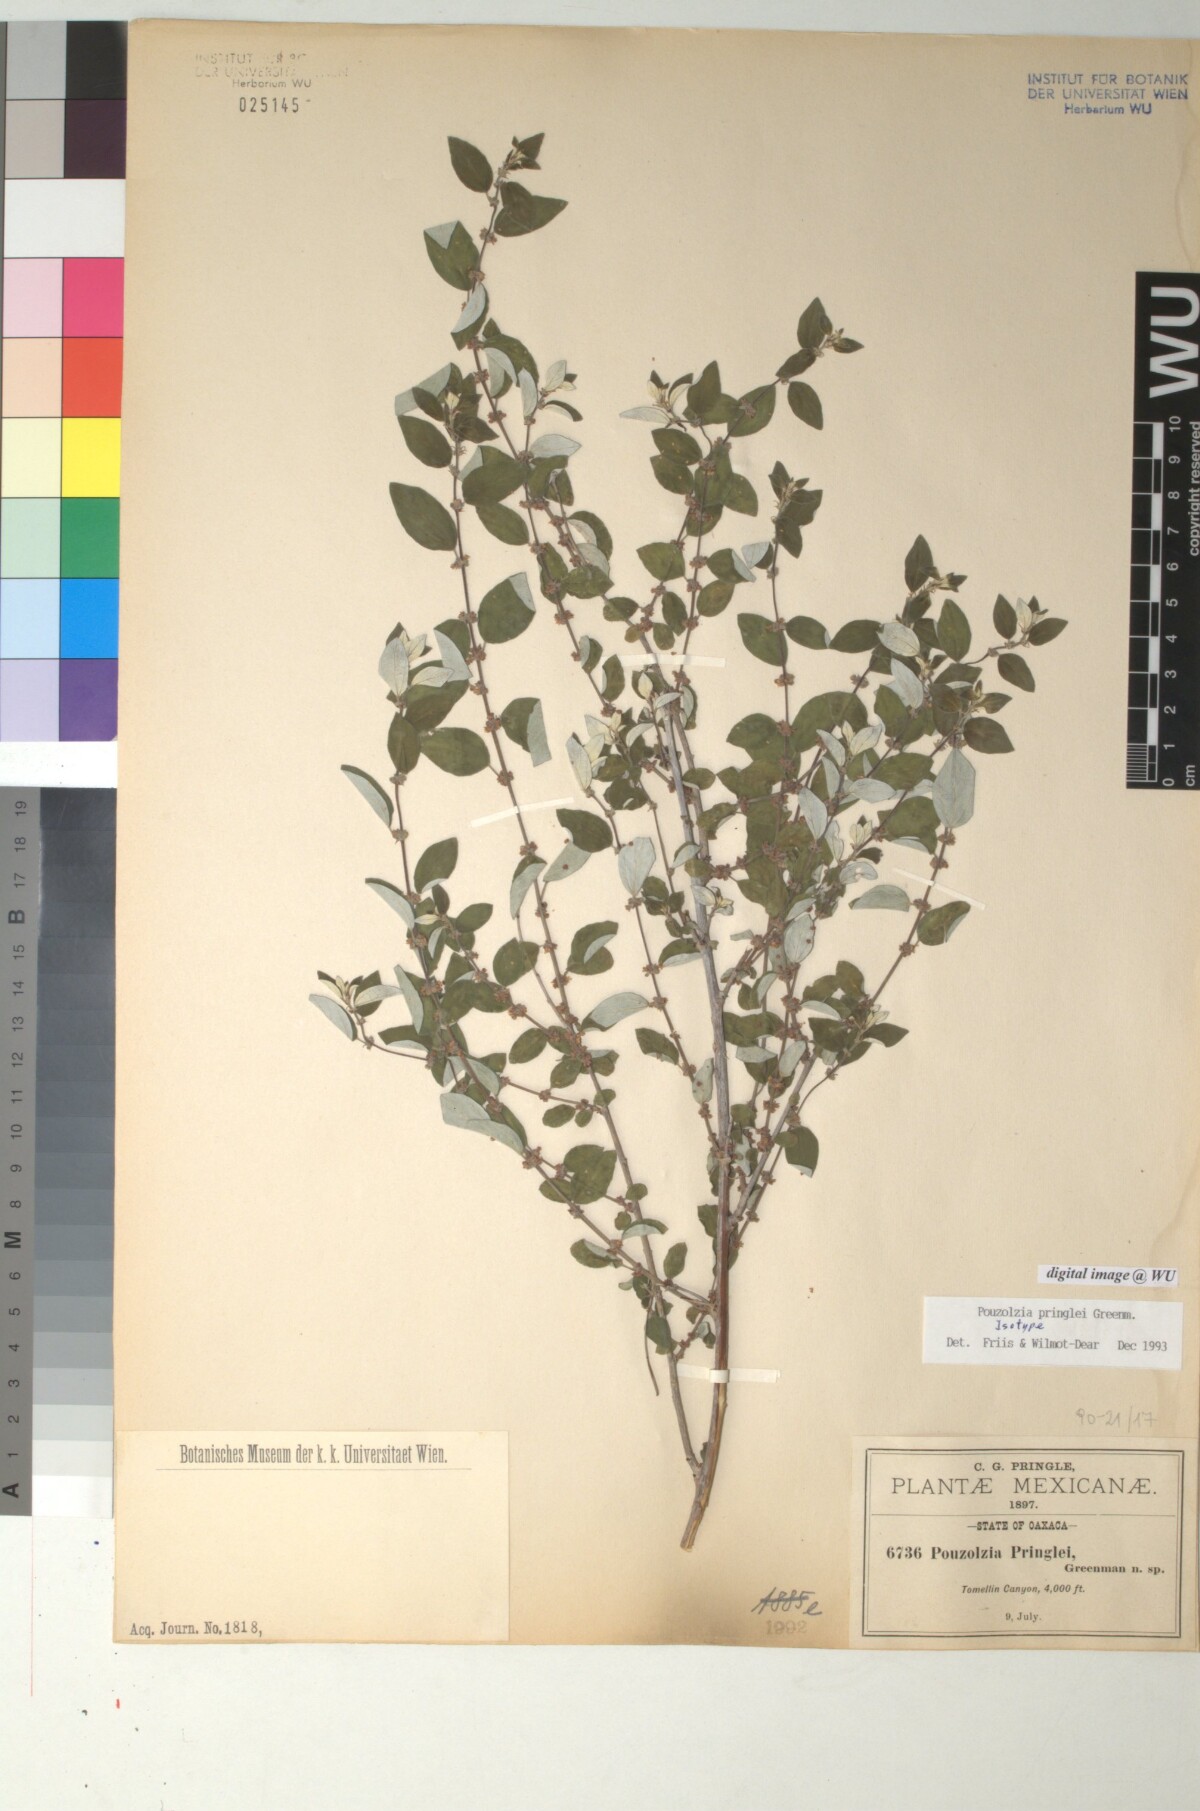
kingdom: Plantae
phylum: Tracheophyta
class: Magnoliopsida
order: Rosales
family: Urticaceae
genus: Pouzolzia
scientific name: Pouzolzia pringlei
